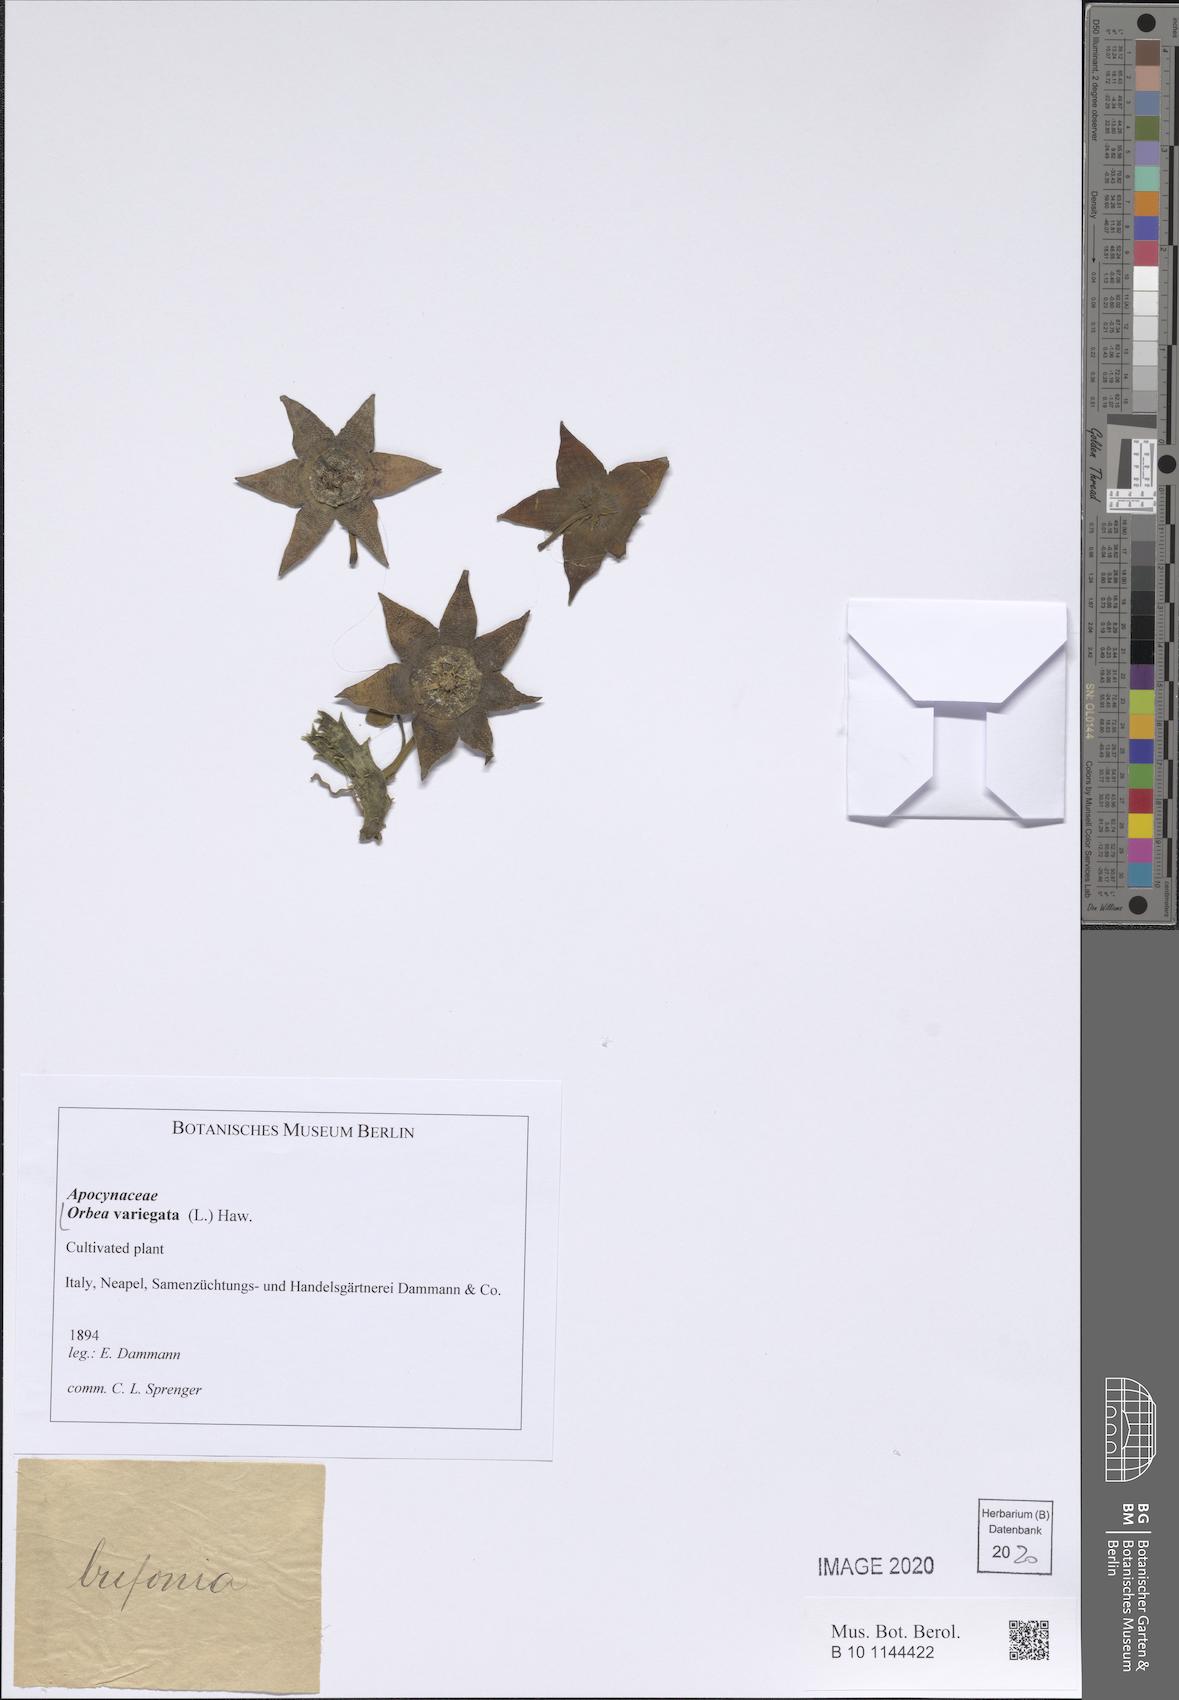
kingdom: Plantae
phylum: Tracheophyta
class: Magnoliopsida
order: Gentianales
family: Apocynaceae
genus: Ceropegia
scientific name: Ceropegia mixta
